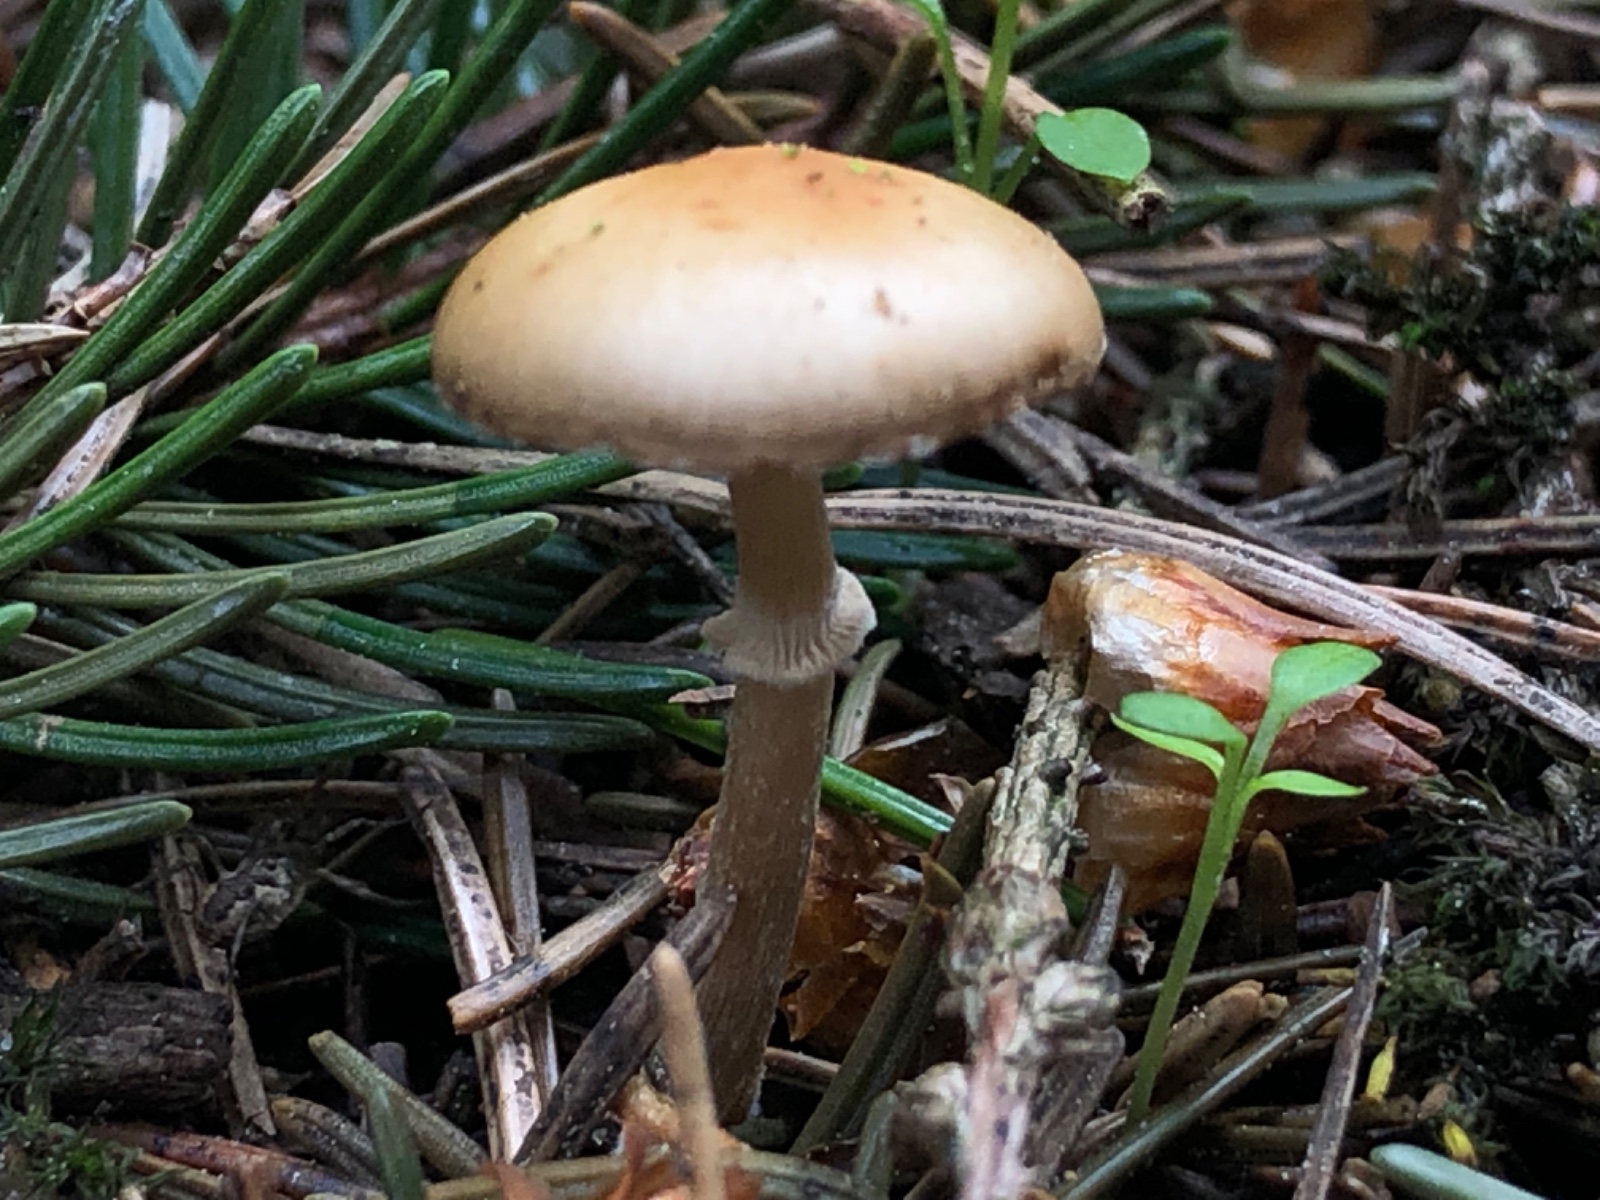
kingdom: Fungi
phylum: Basidiomycota
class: Agaricomycetes
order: Agaricales
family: Bolbitiaceae
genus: Conocybe
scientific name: Conocybe aporos
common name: tidlig dansehat
